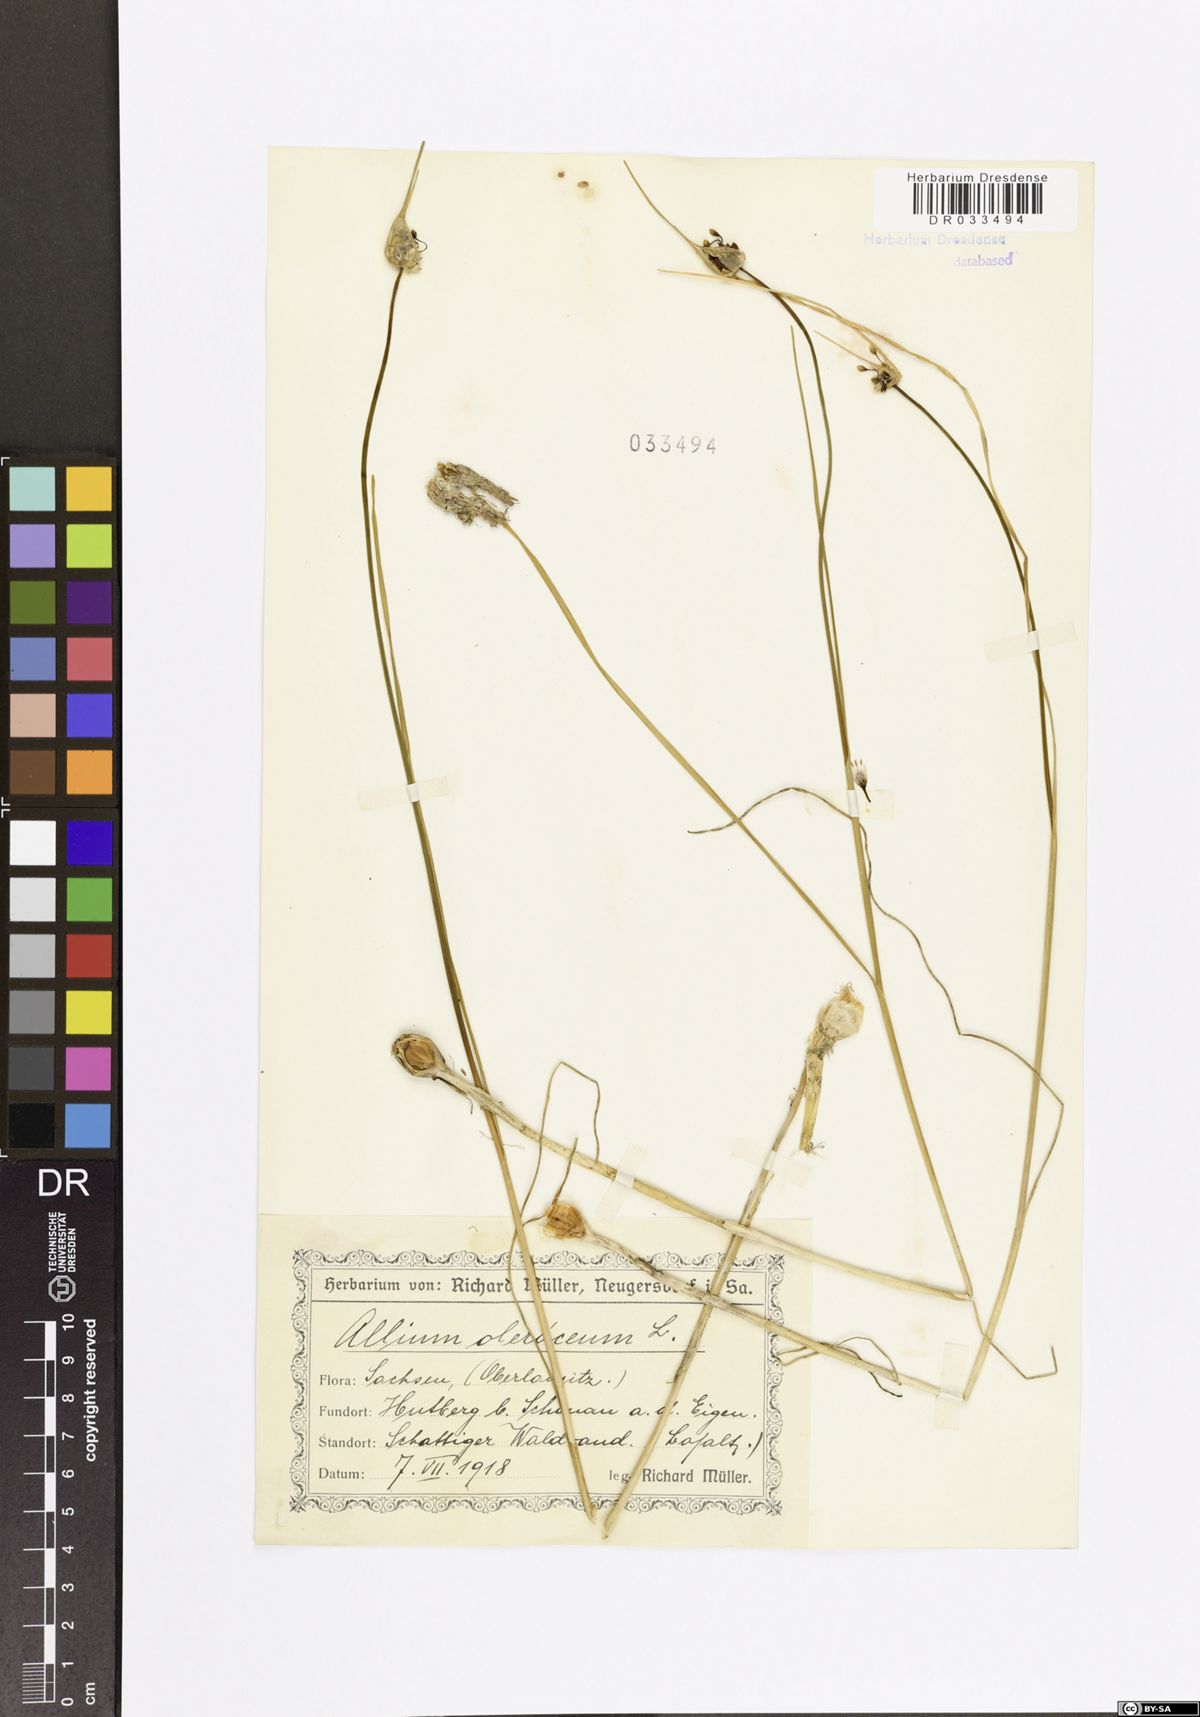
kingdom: Plantae
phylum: Tracheophyta
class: Liliopsida
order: Asparagales
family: Amaryllidaceae
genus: Allium
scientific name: Allium oleraceum
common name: Field garlic
